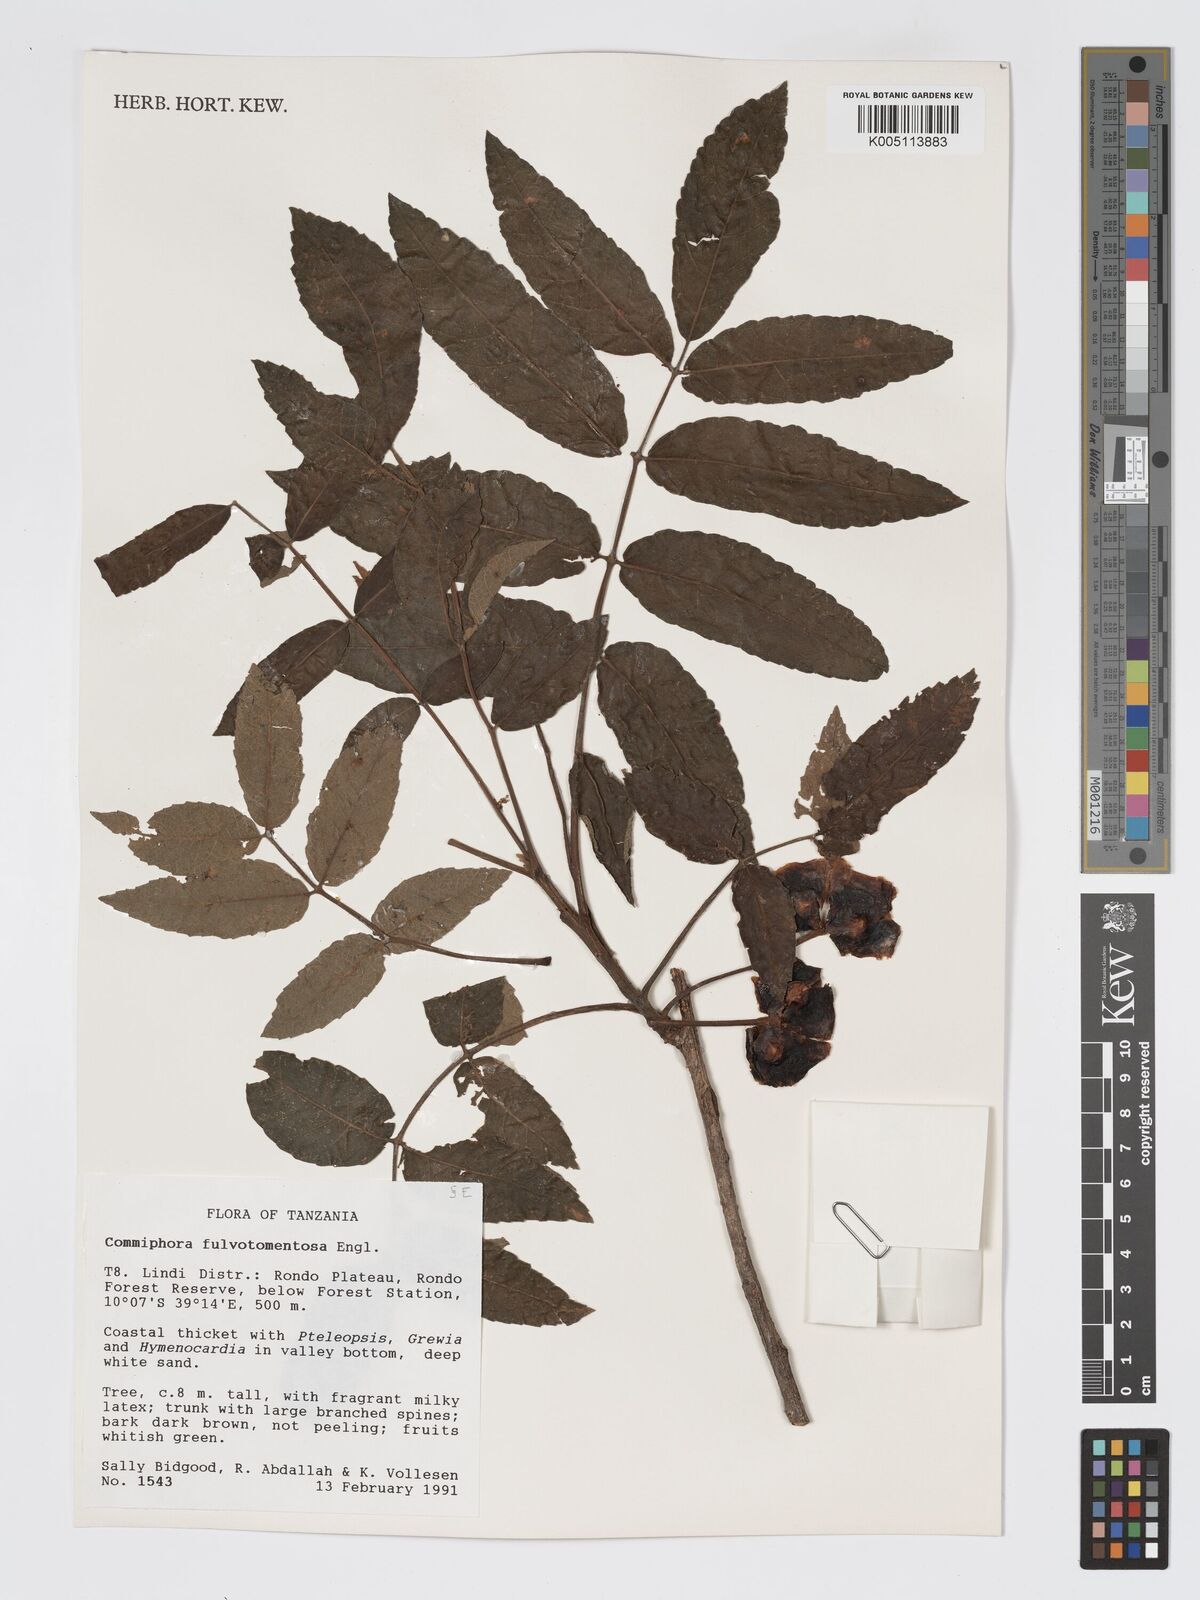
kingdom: Plantae
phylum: Tracheophyta
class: Magnoliopsida
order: Sapindales
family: Burseraceae
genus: Commiphora
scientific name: Commiphora fulvotomentosa
